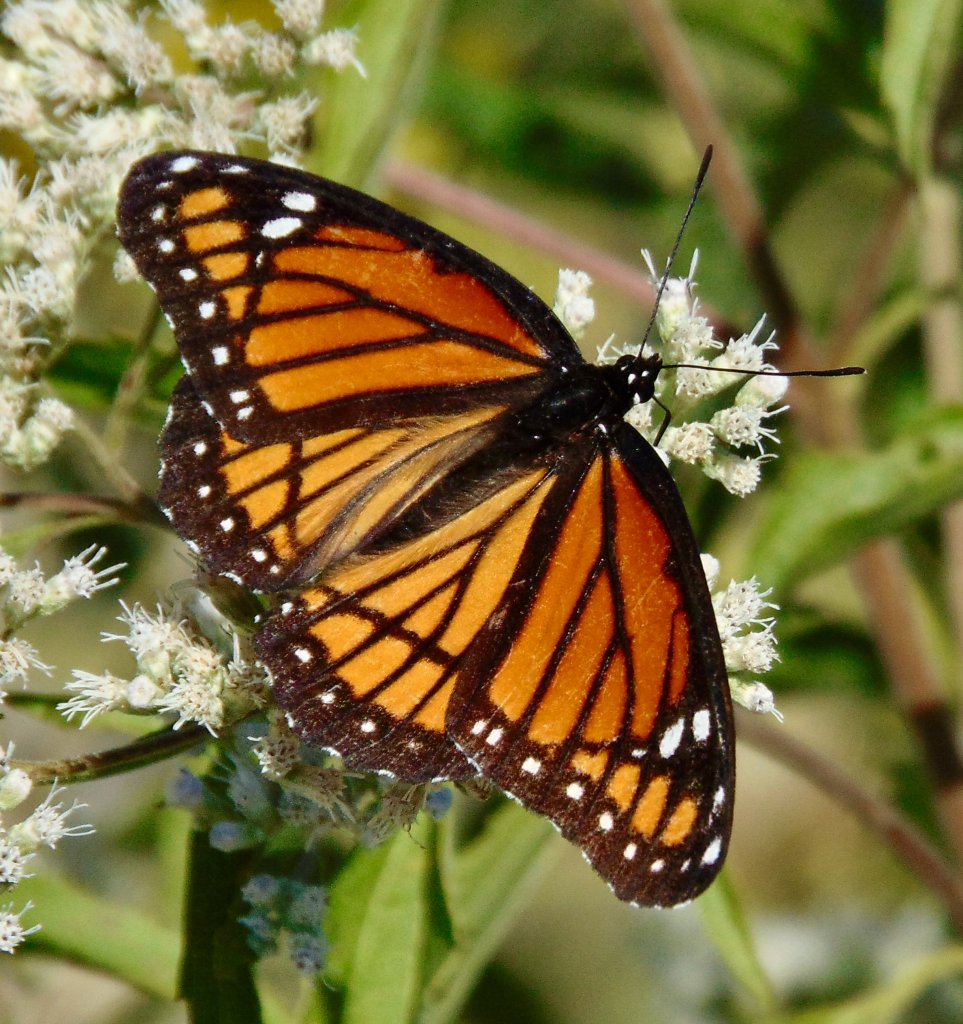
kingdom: Animalia
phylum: Arthropoda
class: Insecta
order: Lepidoptera
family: Nymphalidae
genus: Limenitis
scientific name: Limenitis archippus
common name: Viceroy
